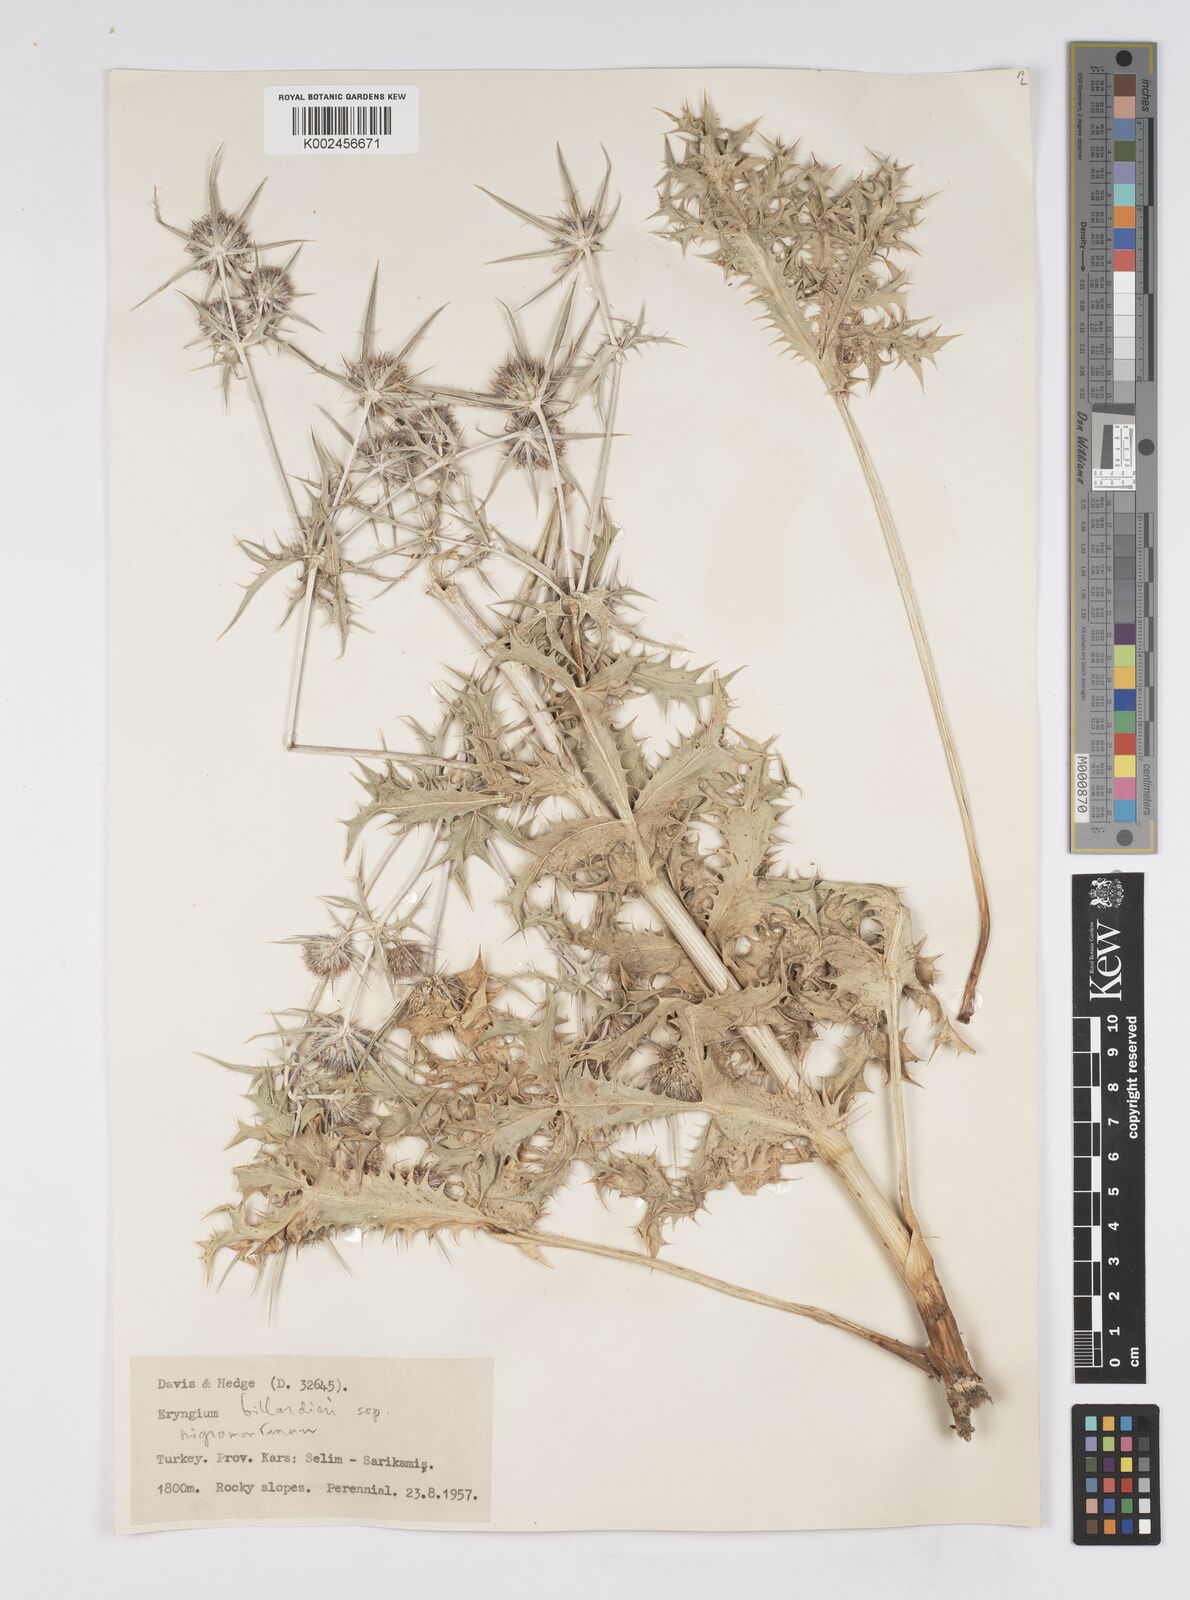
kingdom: Plantae
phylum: Tracheophyta
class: Magnoliopsida
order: Apiales
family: Apiaceae
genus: Eryngium
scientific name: Eryngium billardierei
